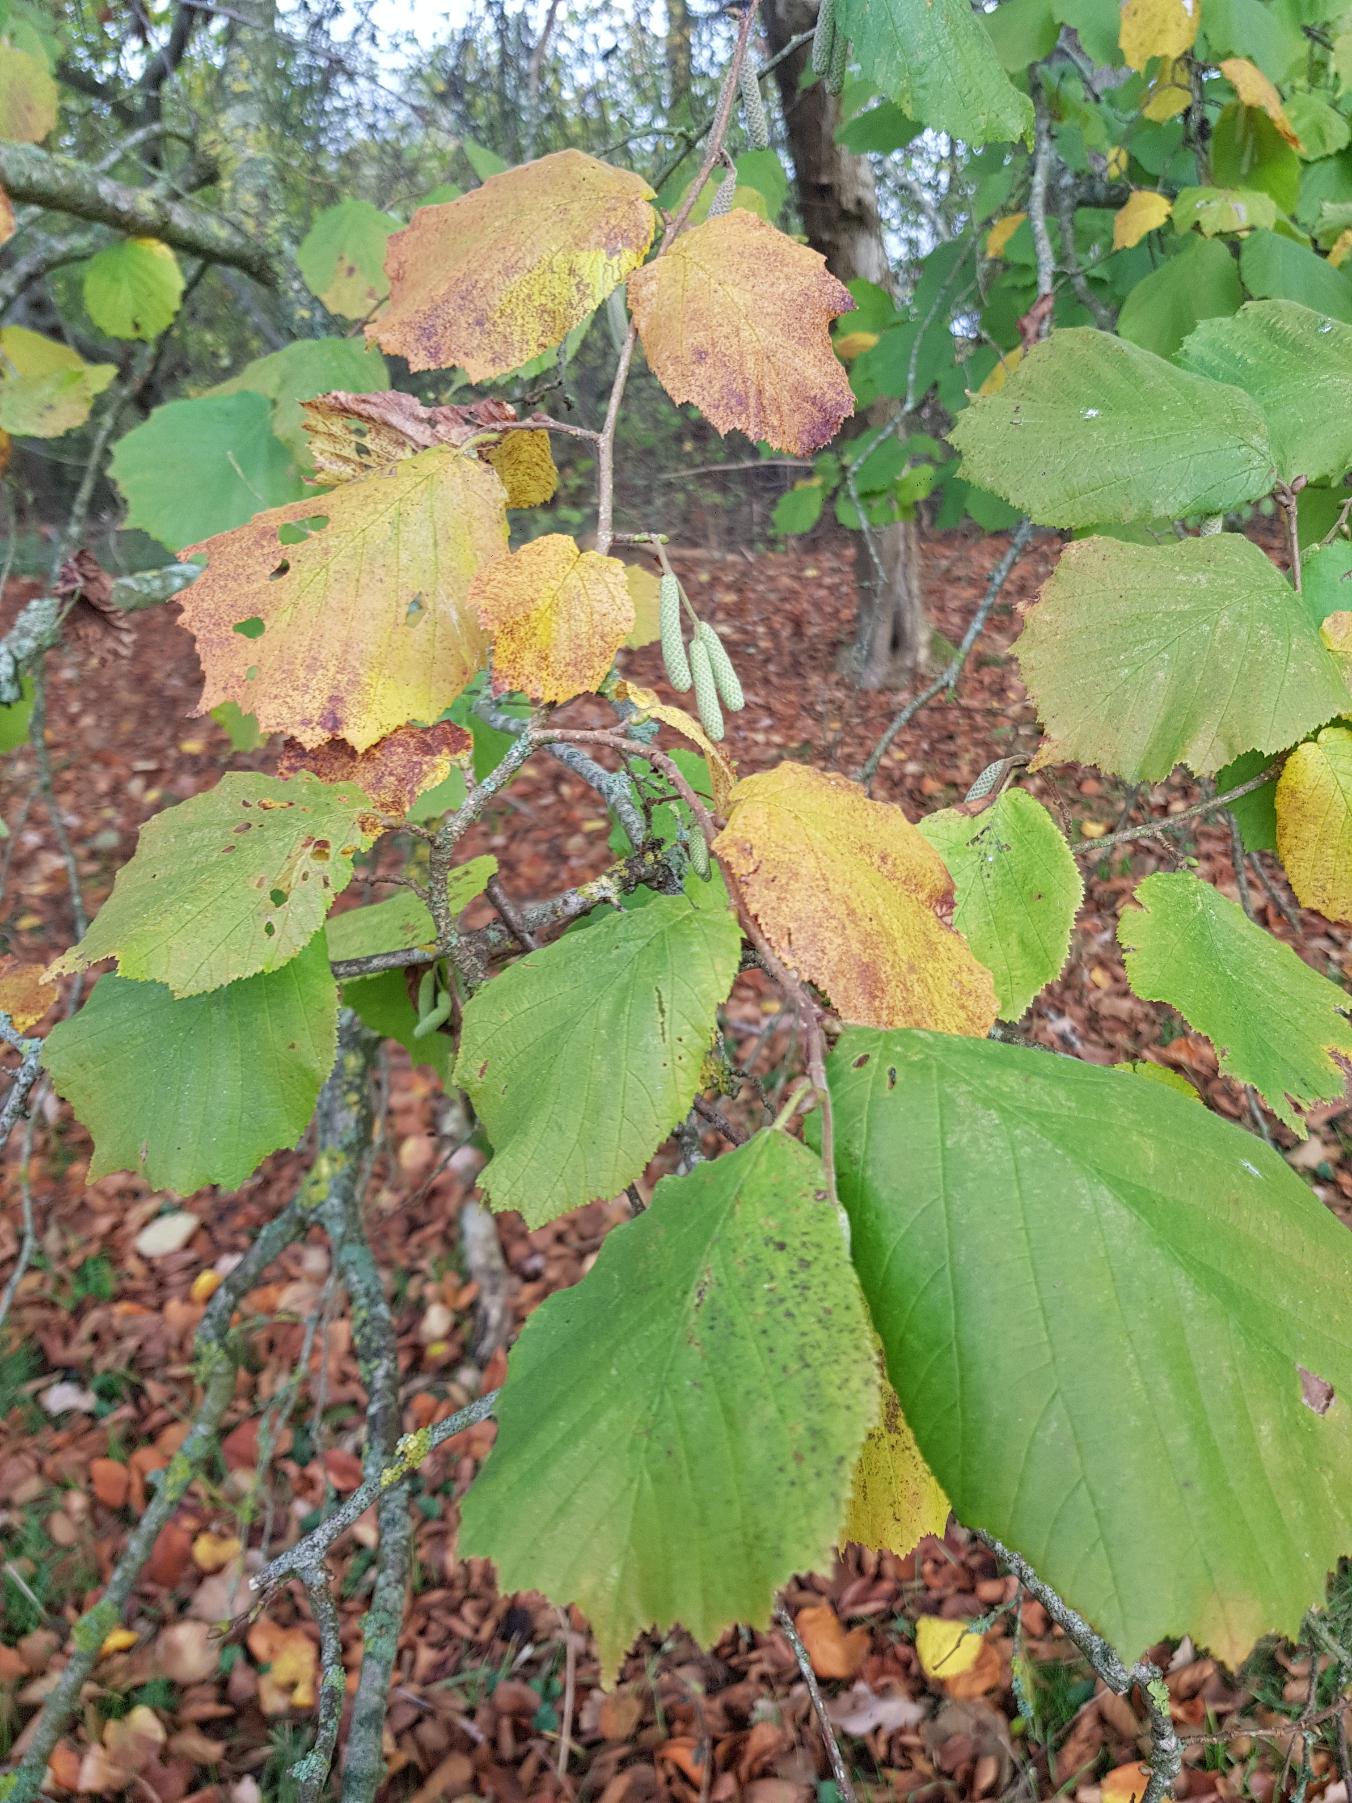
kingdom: Plantae
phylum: Tracheophyta
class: Magnoliopsida
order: Fagales
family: Betulaceae
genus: Corylus
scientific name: Corylus avellana
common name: Hassel
